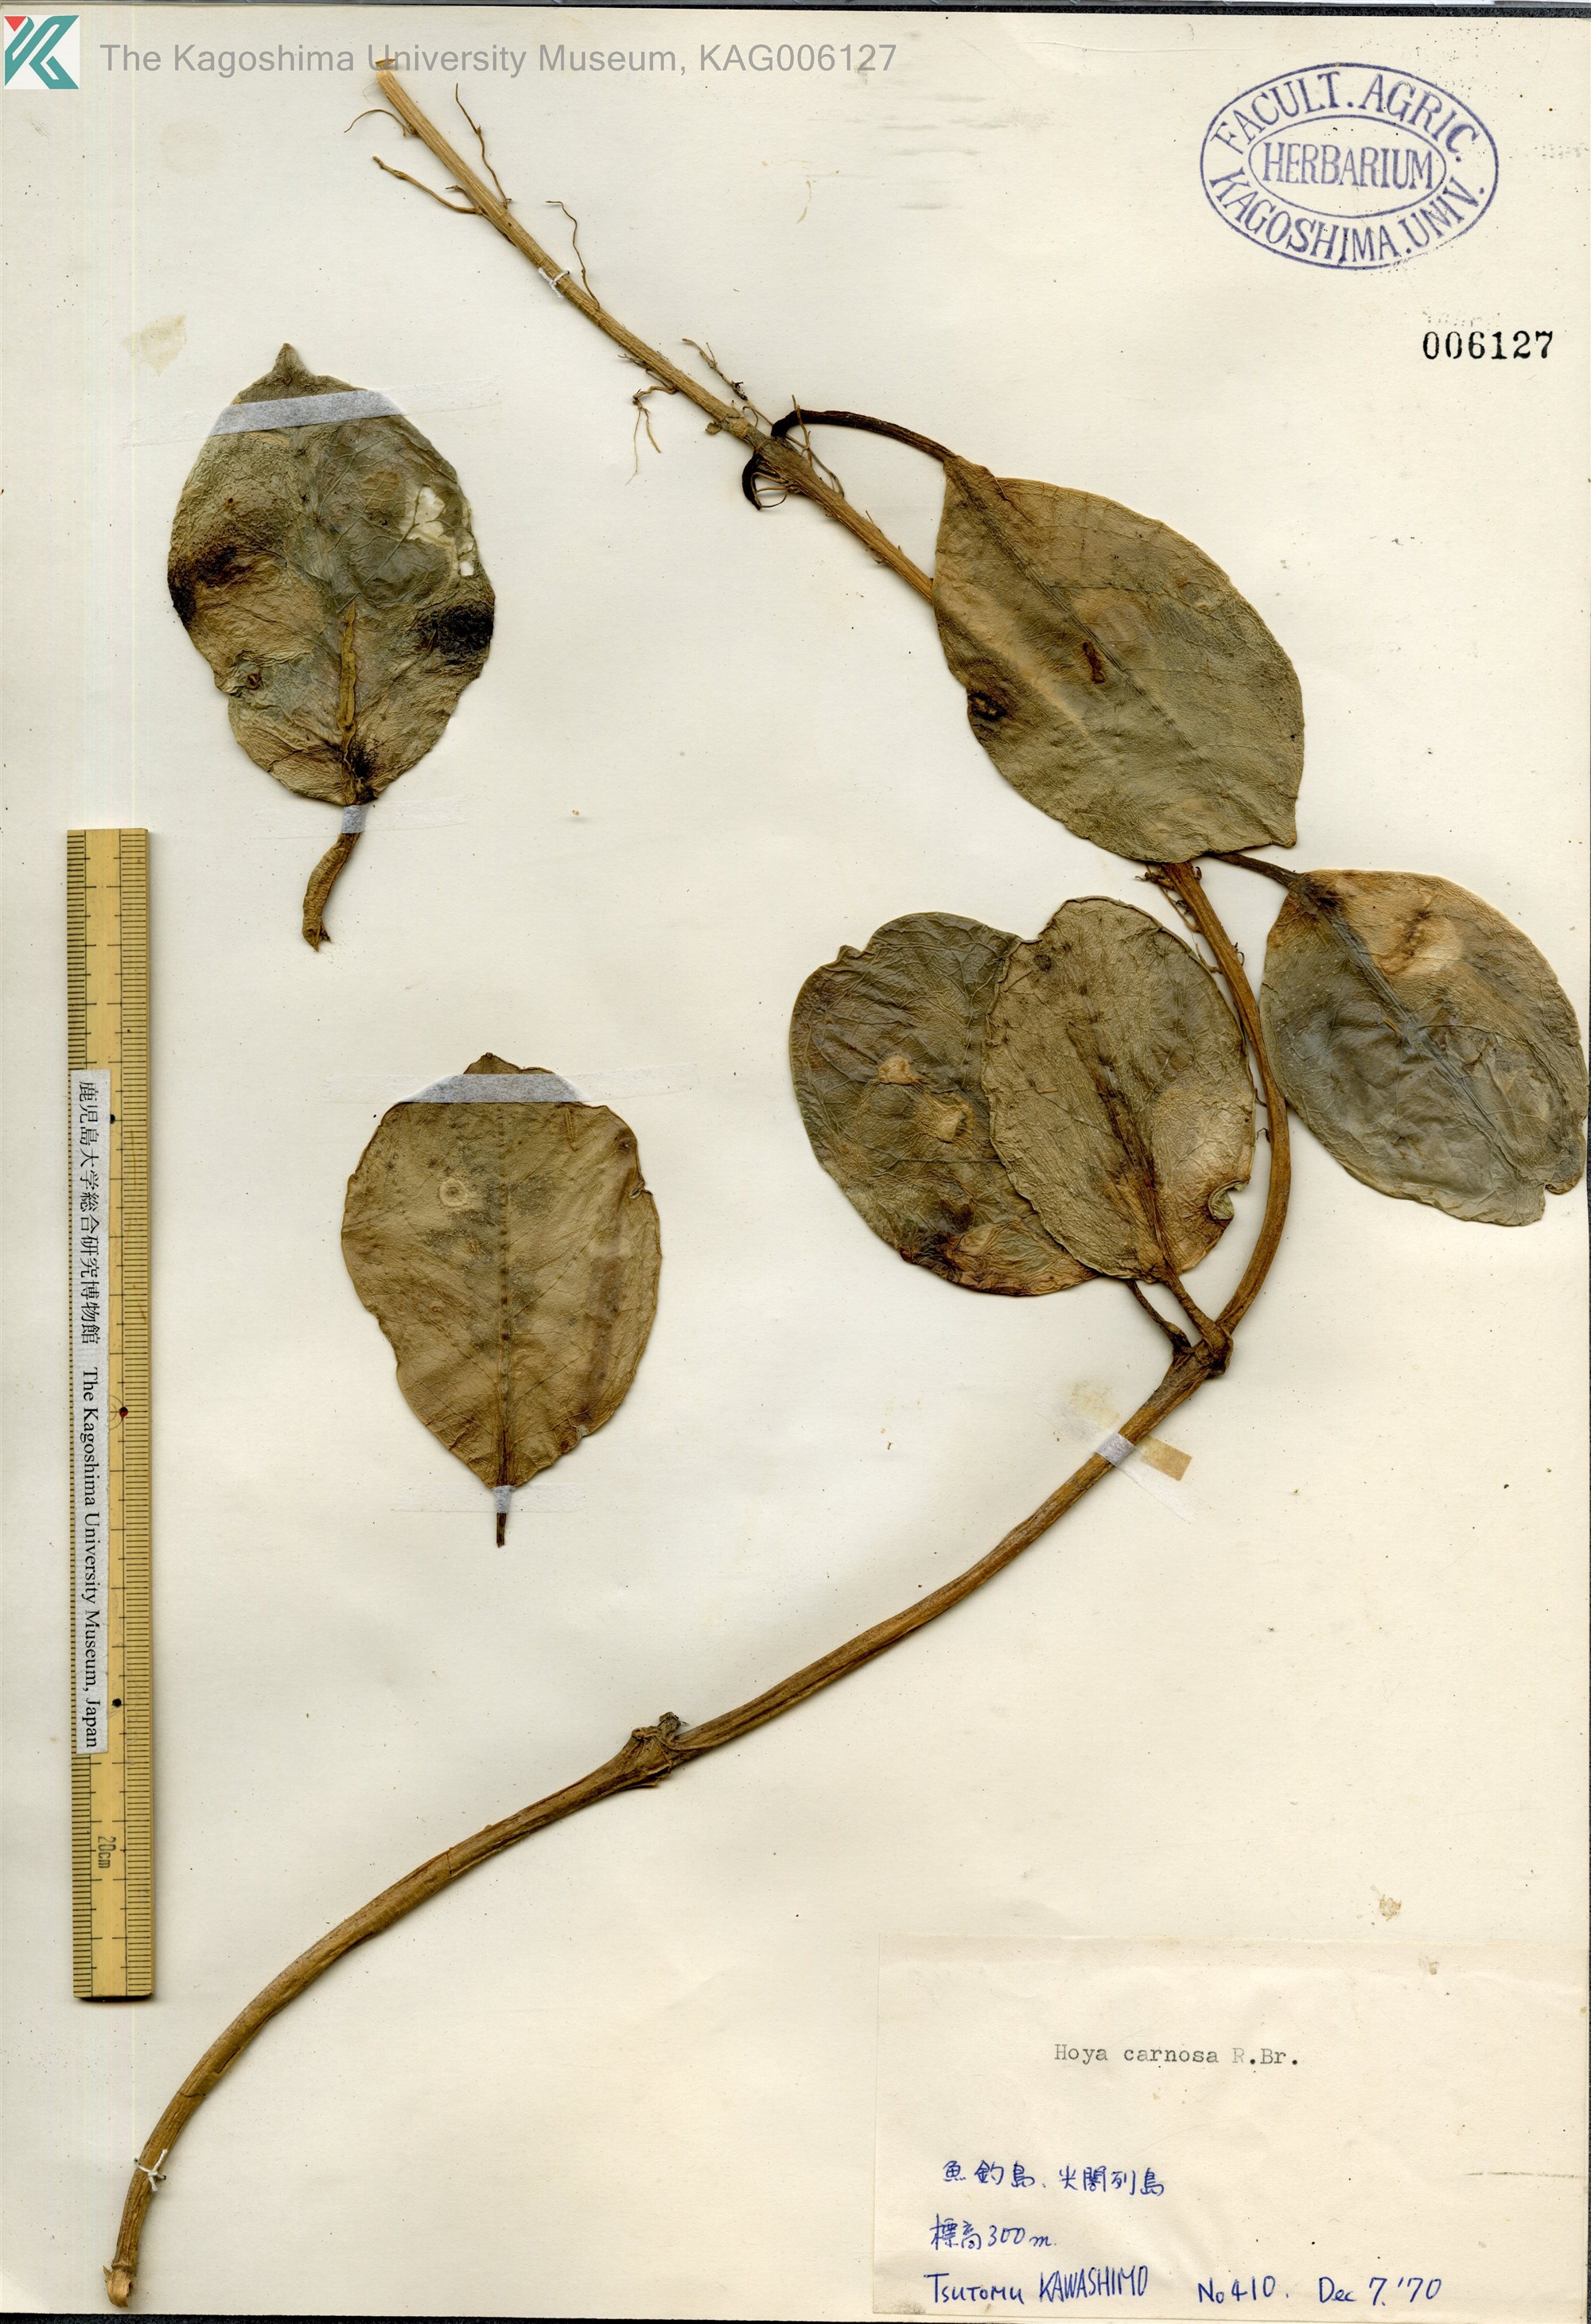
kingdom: Plantae
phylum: Tracheophyta
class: Magnoliopsida
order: Gentianales
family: Apocynaceae
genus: Hoya
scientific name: Hoya carnosa
